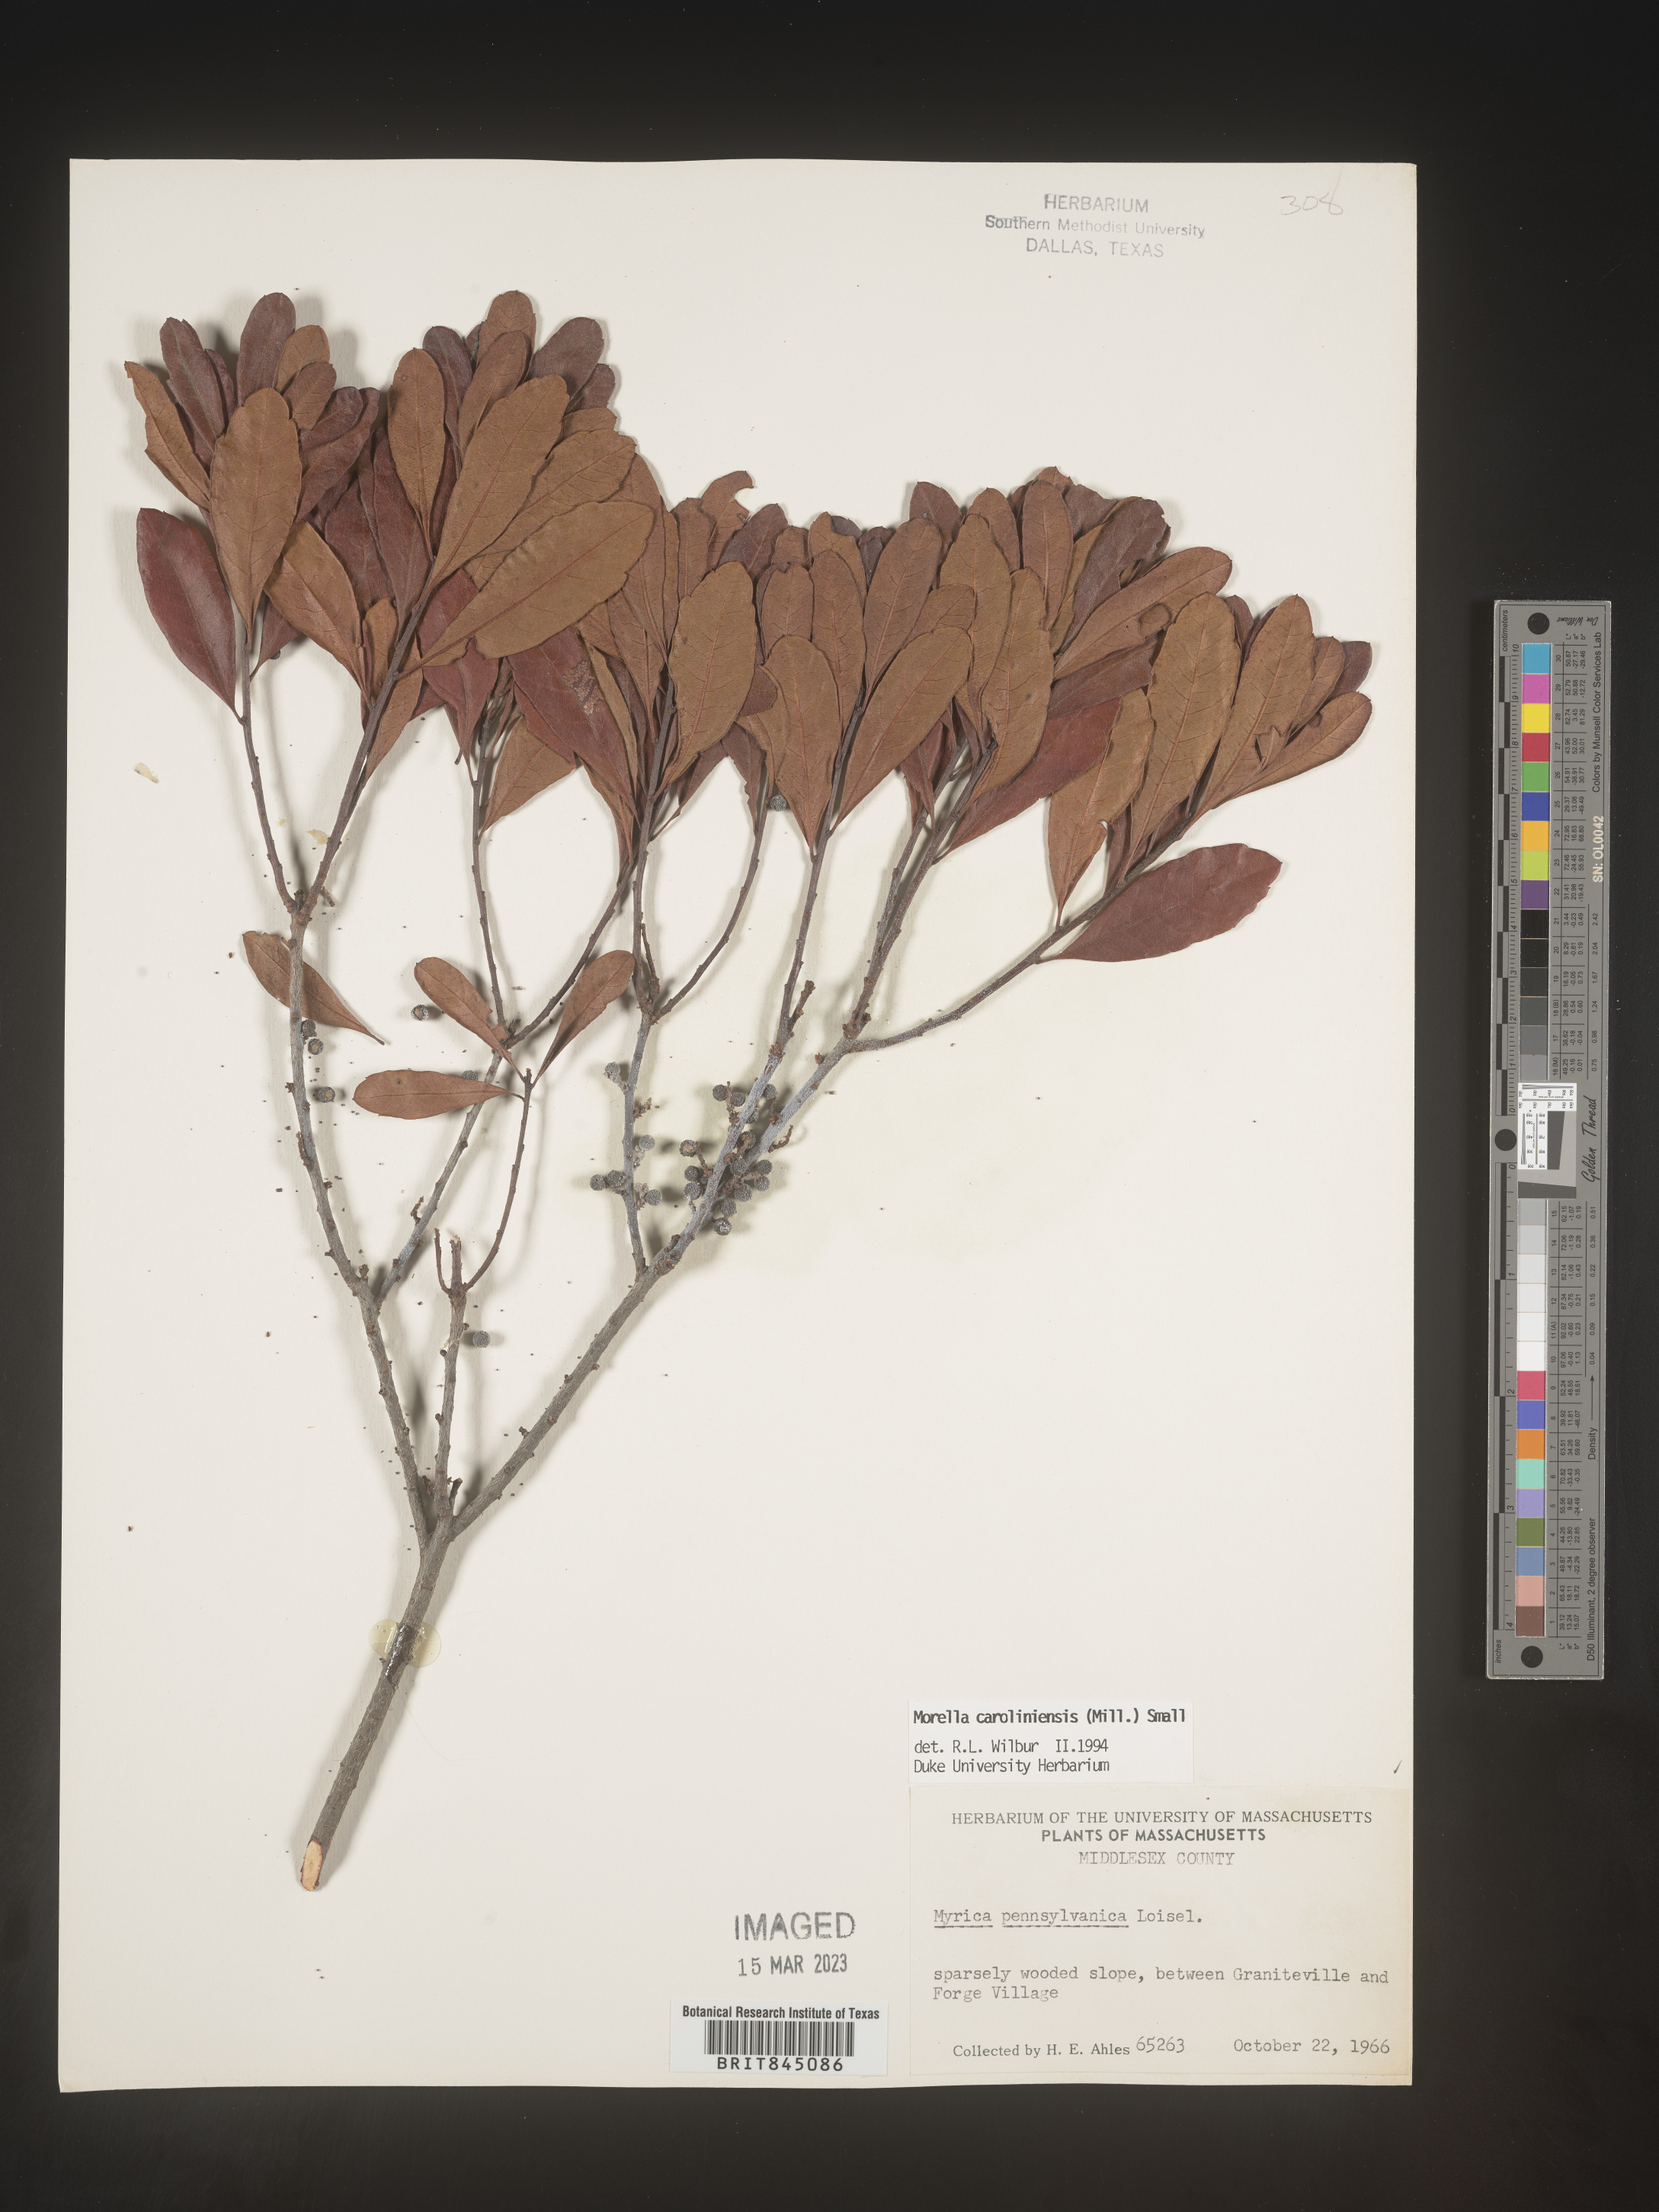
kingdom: Plantae
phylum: Tracheophyta
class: Magnoliopsida
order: Fagales
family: Myricaceae
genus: Morella
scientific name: Morella caroliniensis
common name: Evergreen bayberry
